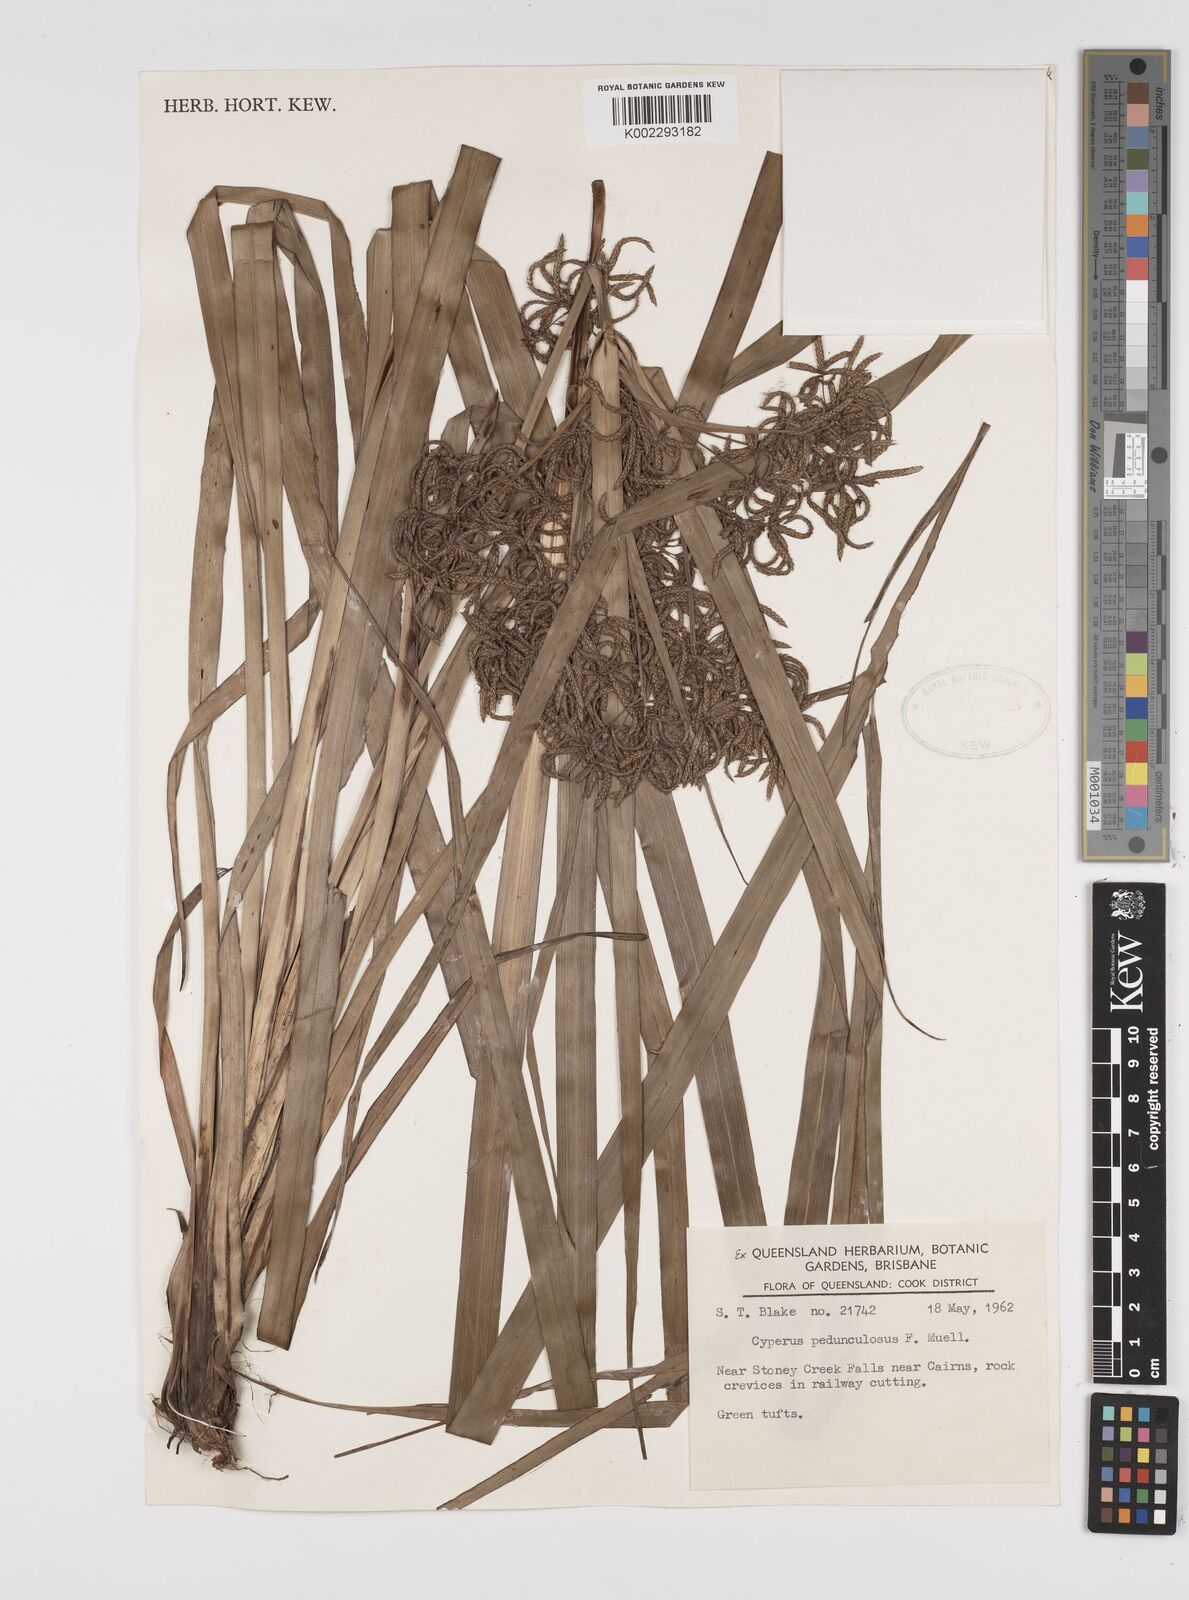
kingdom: Plantae
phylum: Tracheophyta
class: Liliopsida
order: Poales
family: Cyperaceae
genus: Cyperus
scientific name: Cyperus pedunculosus
